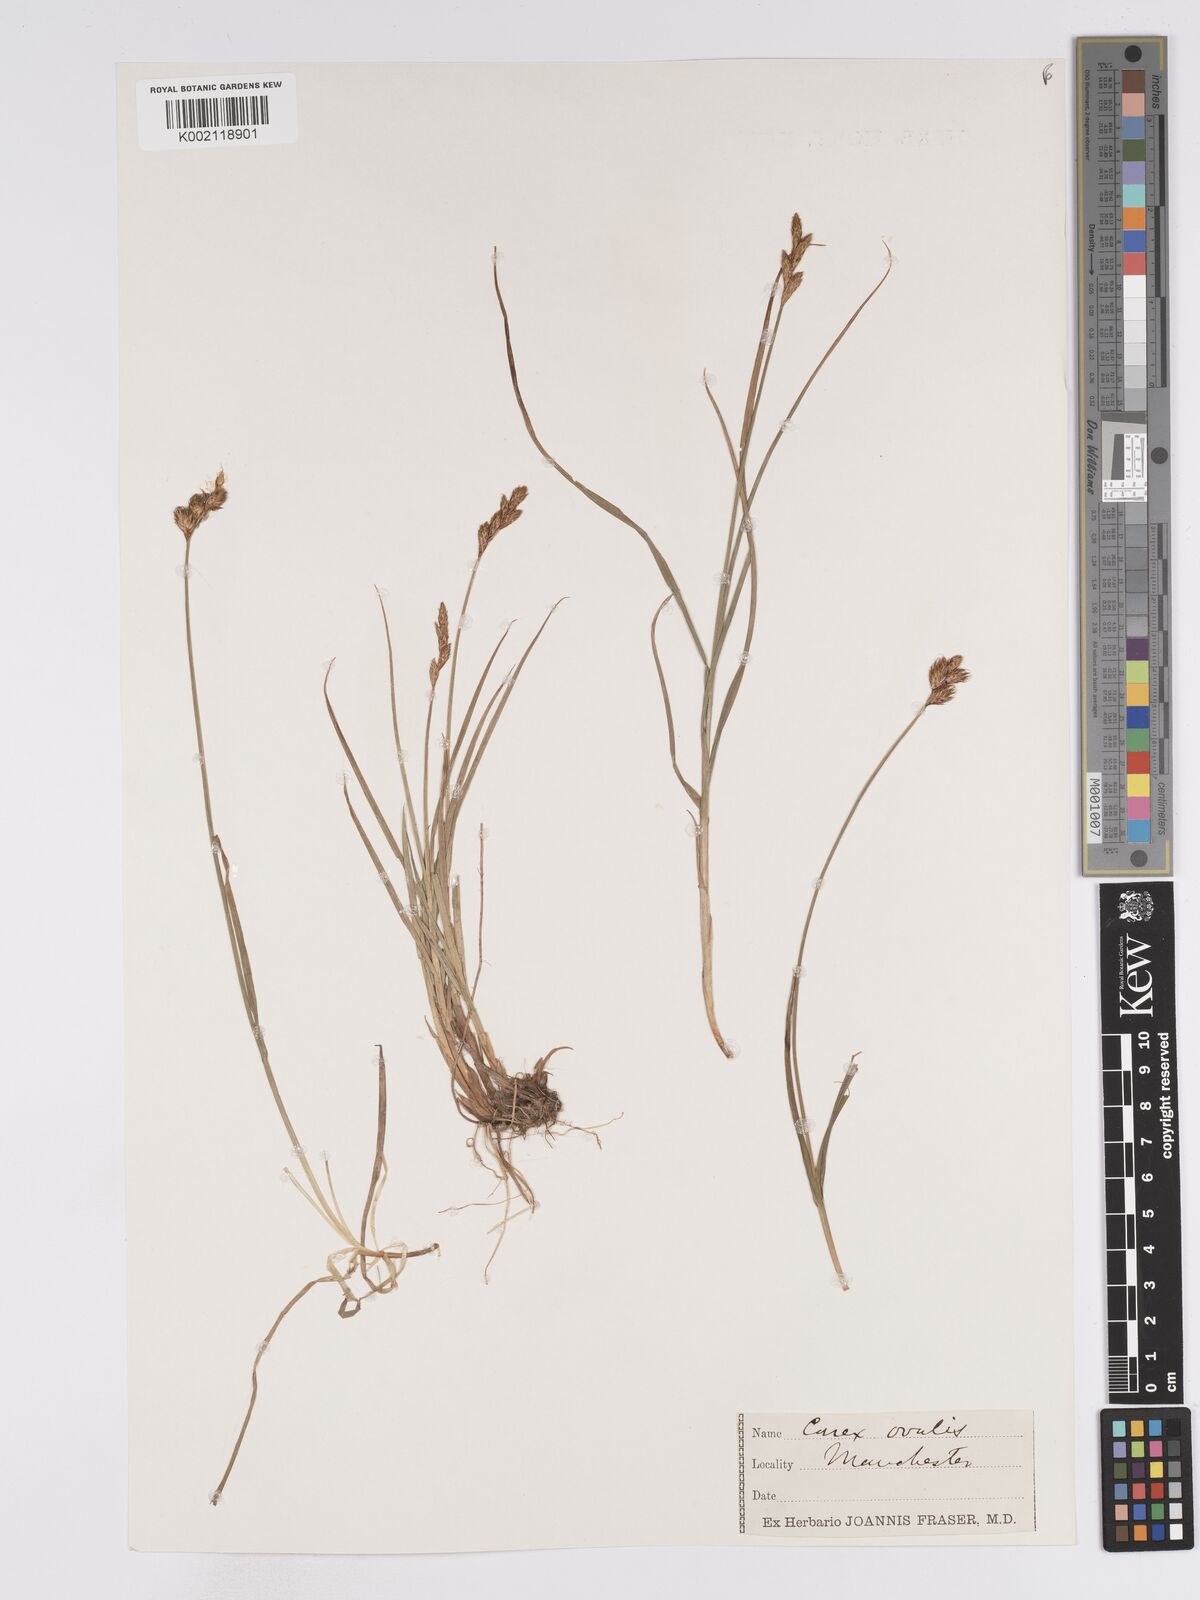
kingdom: Plantae
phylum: Tracheophyta
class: Liliopsida
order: Poales
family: Cyperaceae
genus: Carex
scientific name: Carex leporina
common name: Oval sedge
